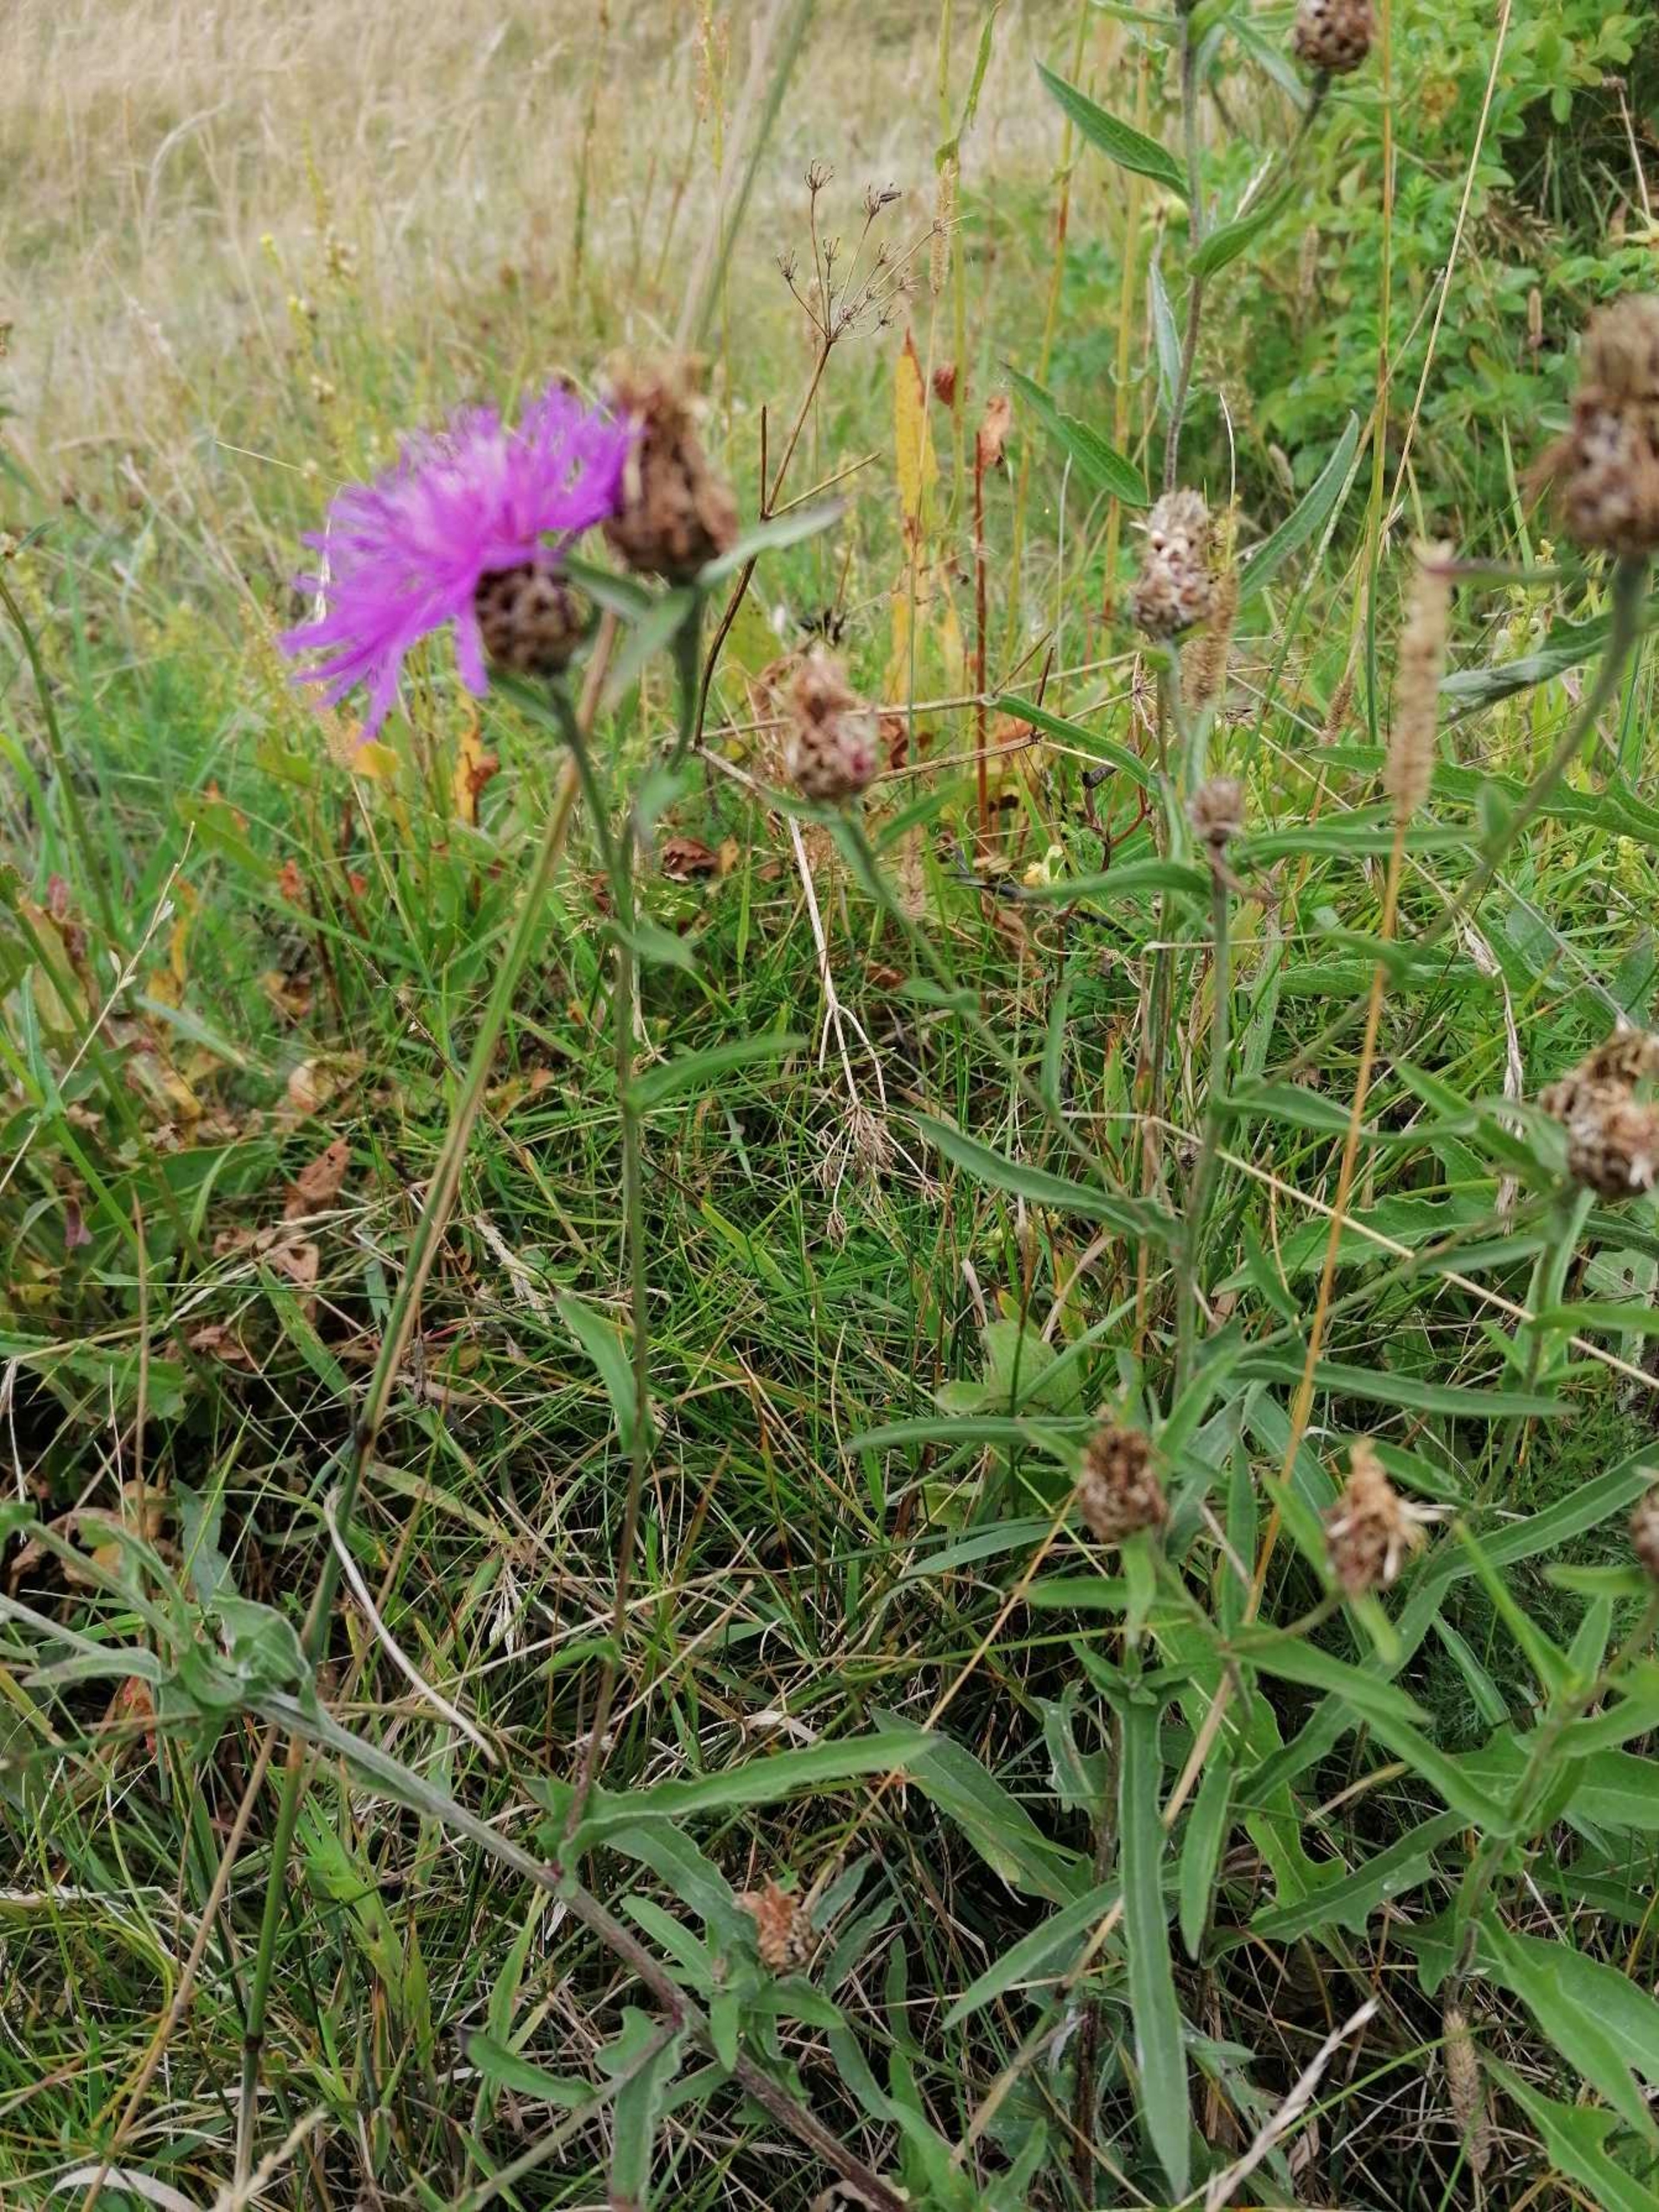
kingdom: Plantae
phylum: Tracheophyta
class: Magnoliopsida
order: Asterales
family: Asteraceae
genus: Centaurea
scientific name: Centaurea jacea
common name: Almindelig knopurt
